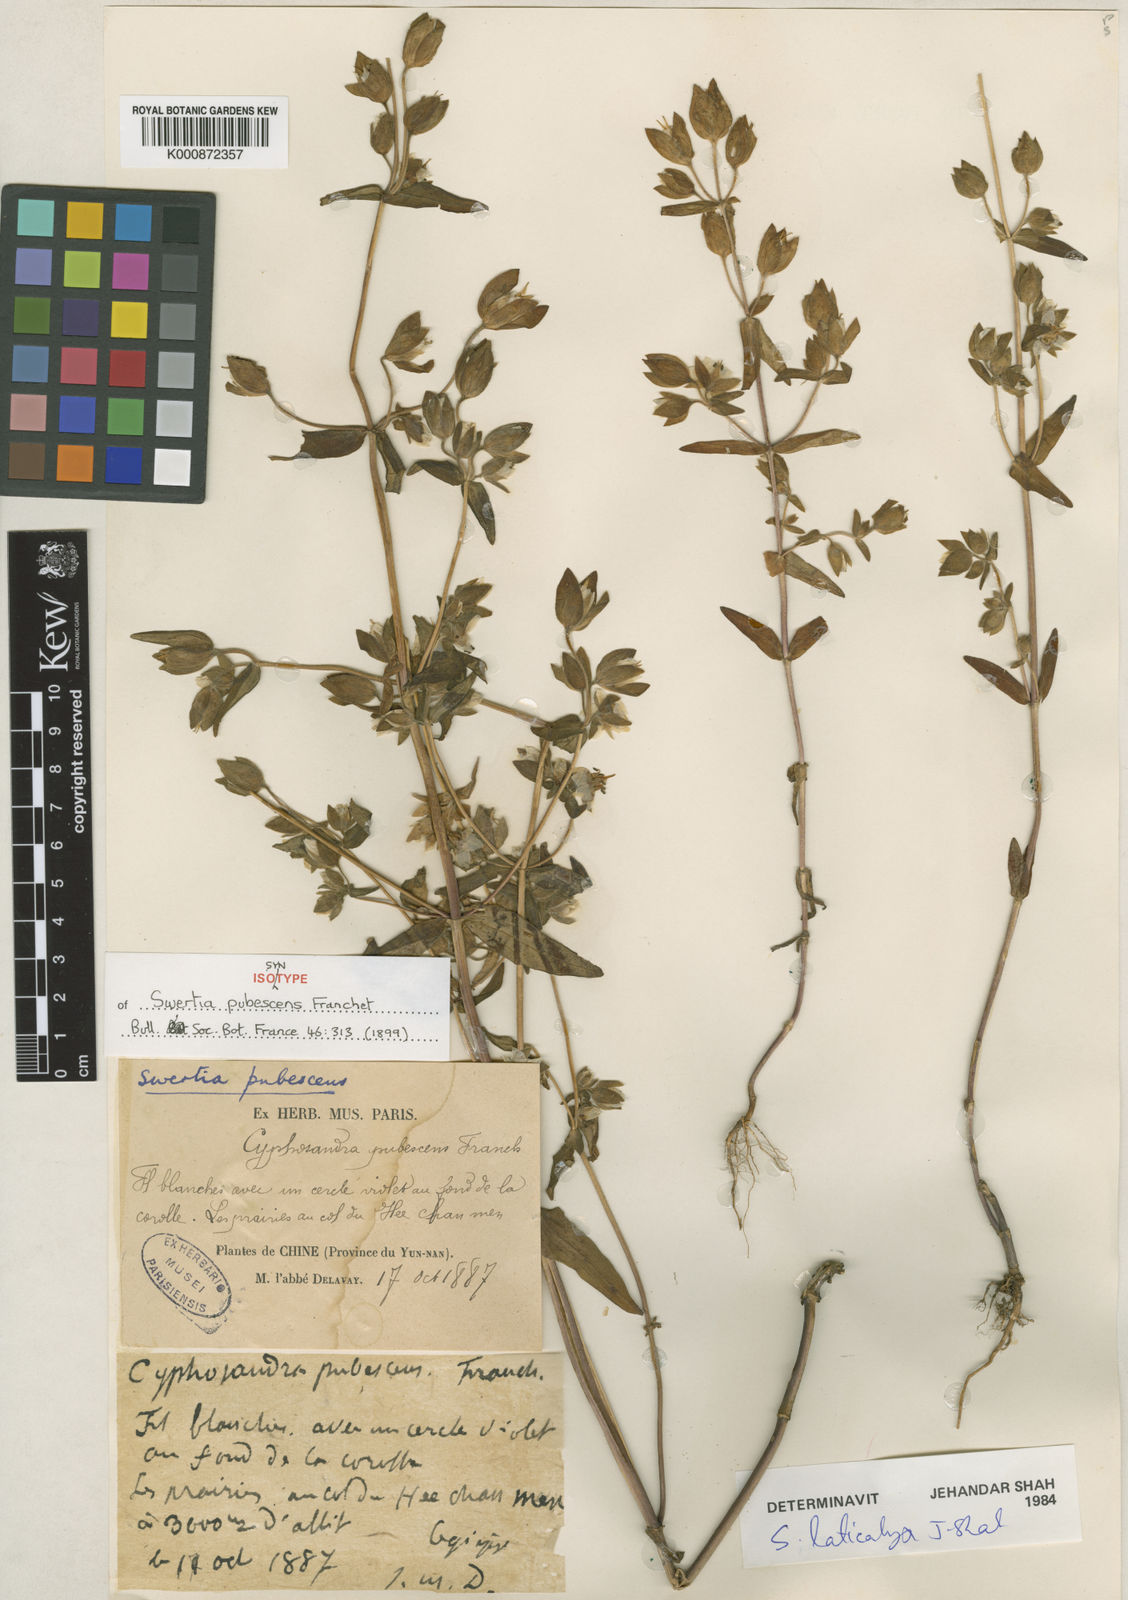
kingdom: Plantae
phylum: Tracheophyta
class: Magnoliopsida
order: Gentianales
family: Gentianaceae
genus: Swertia
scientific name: Swertia laticalyx
